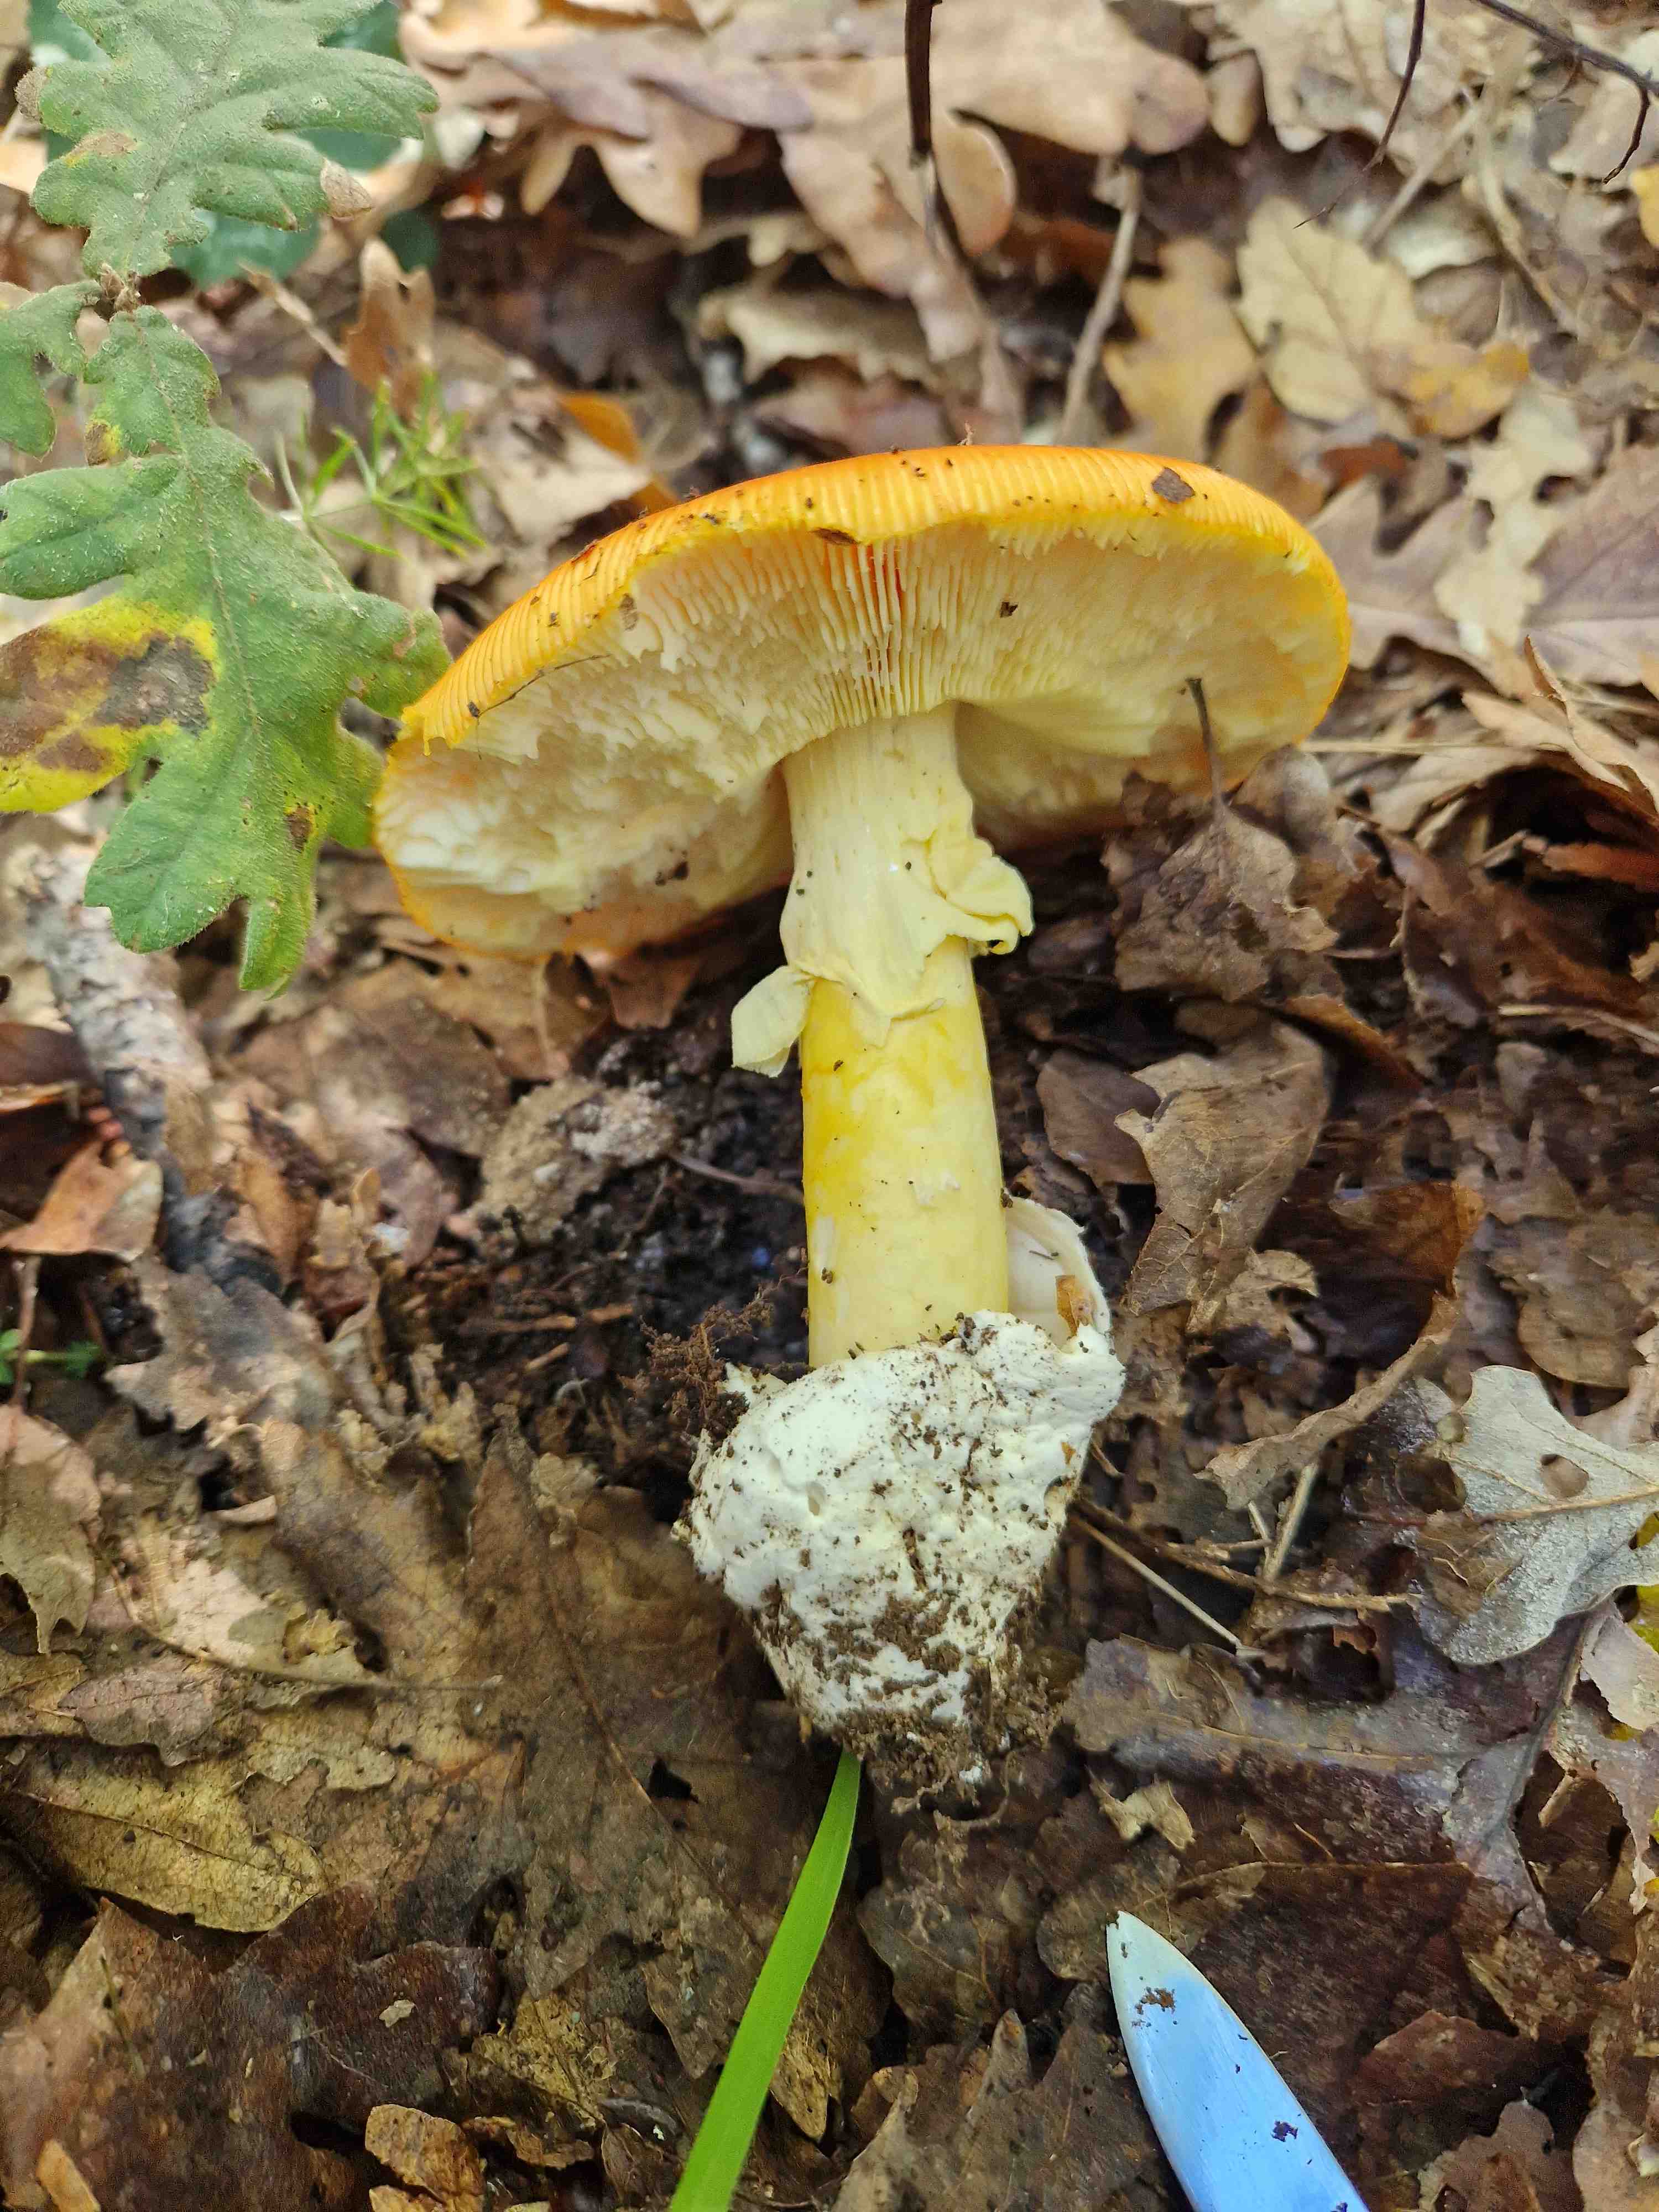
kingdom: Fungi
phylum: Basidiomycota
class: Agaricomycetes
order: Agaricales
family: Amanitaceae
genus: Amanita
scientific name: Amanita caesarea
